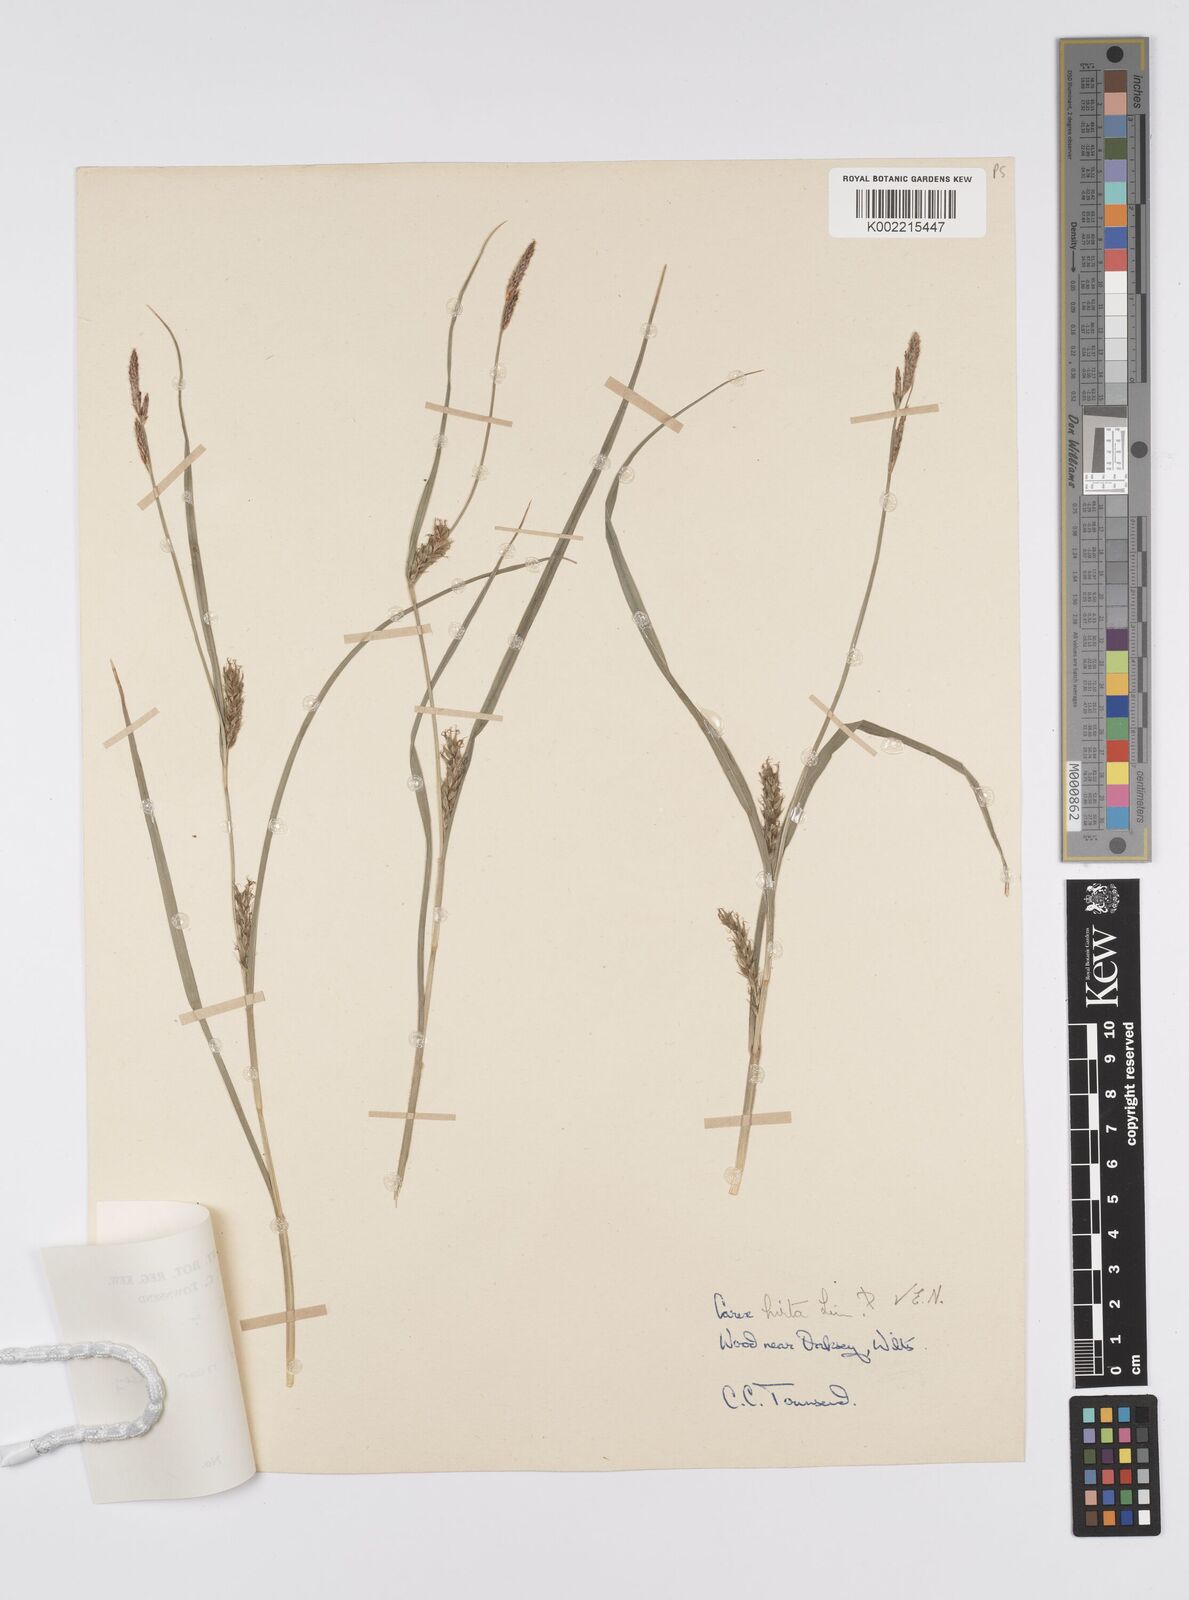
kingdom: Plantae
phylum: Tracheophyta
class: Liliopsida
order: Poales
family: Cyperaceae
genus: Carex
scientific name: Carex hirta
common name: Hairy sedge
